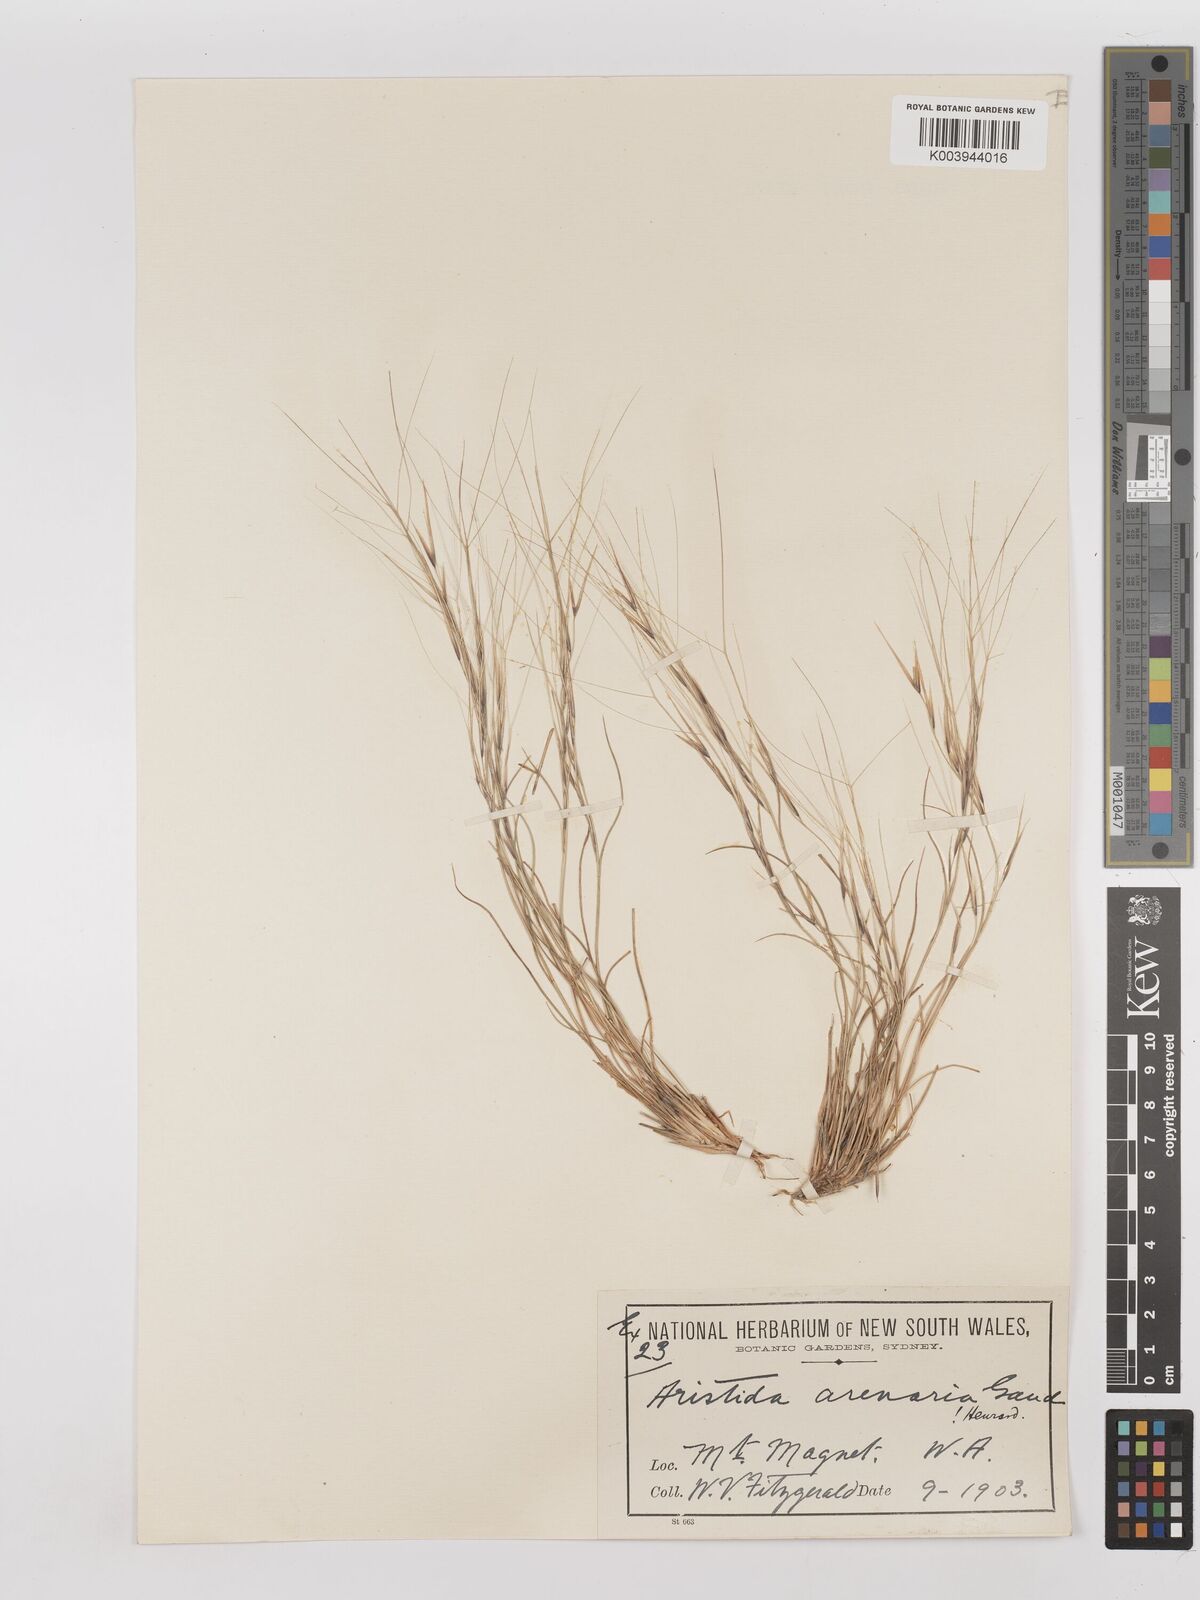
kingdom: Plantae
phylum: Tracheophyta
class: Liliopsida
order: Poales
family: Poaceae
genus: Aristida
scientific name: Aristida contorta
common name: Bunch kerosene grass
